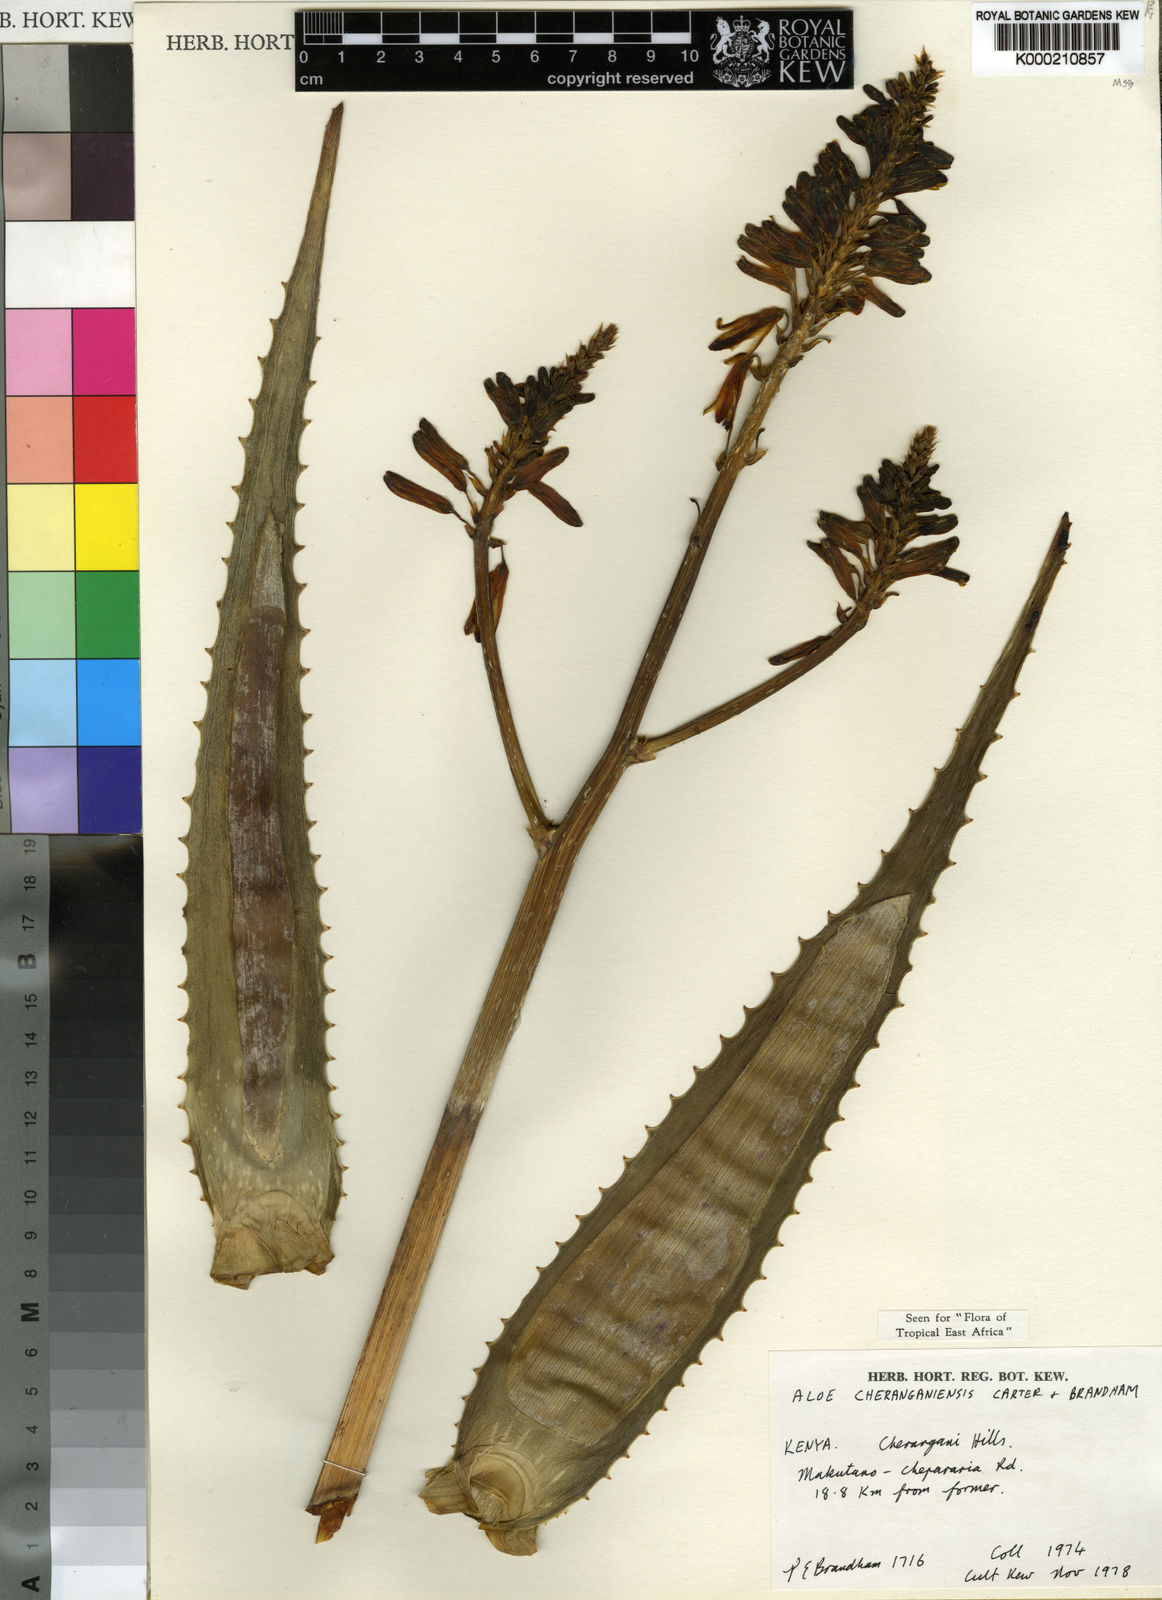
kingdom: Plantae
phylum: Tracheophyta
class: Liliopsida
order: Asparagales
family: Asphodelaceae
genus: Aloe
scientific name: Aloe cheranganiensis
